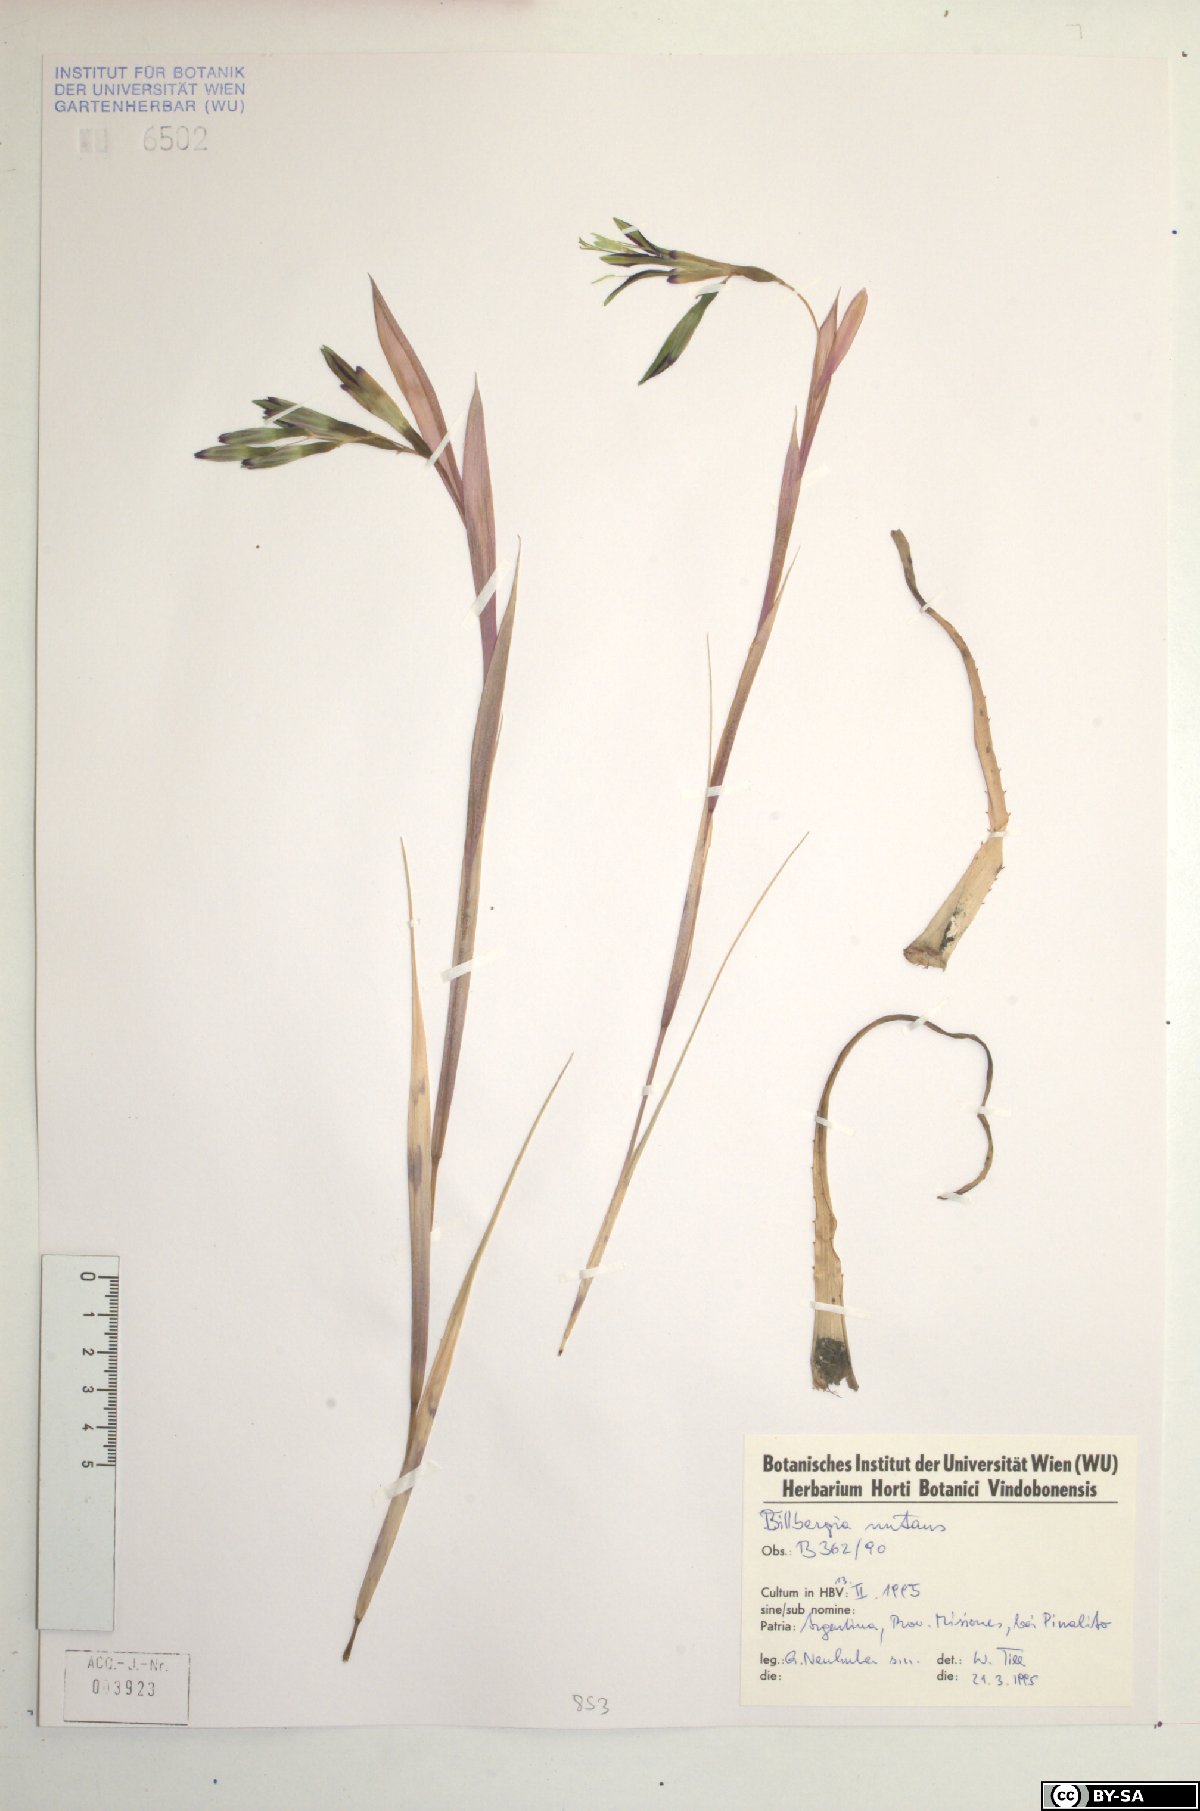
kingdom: Plantae
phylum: Tracheophyta
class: Liliopsida
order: Poales
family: Bromeliaceae
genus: Billbergia
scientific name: Billbergia nutans
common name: Friendship-plant
